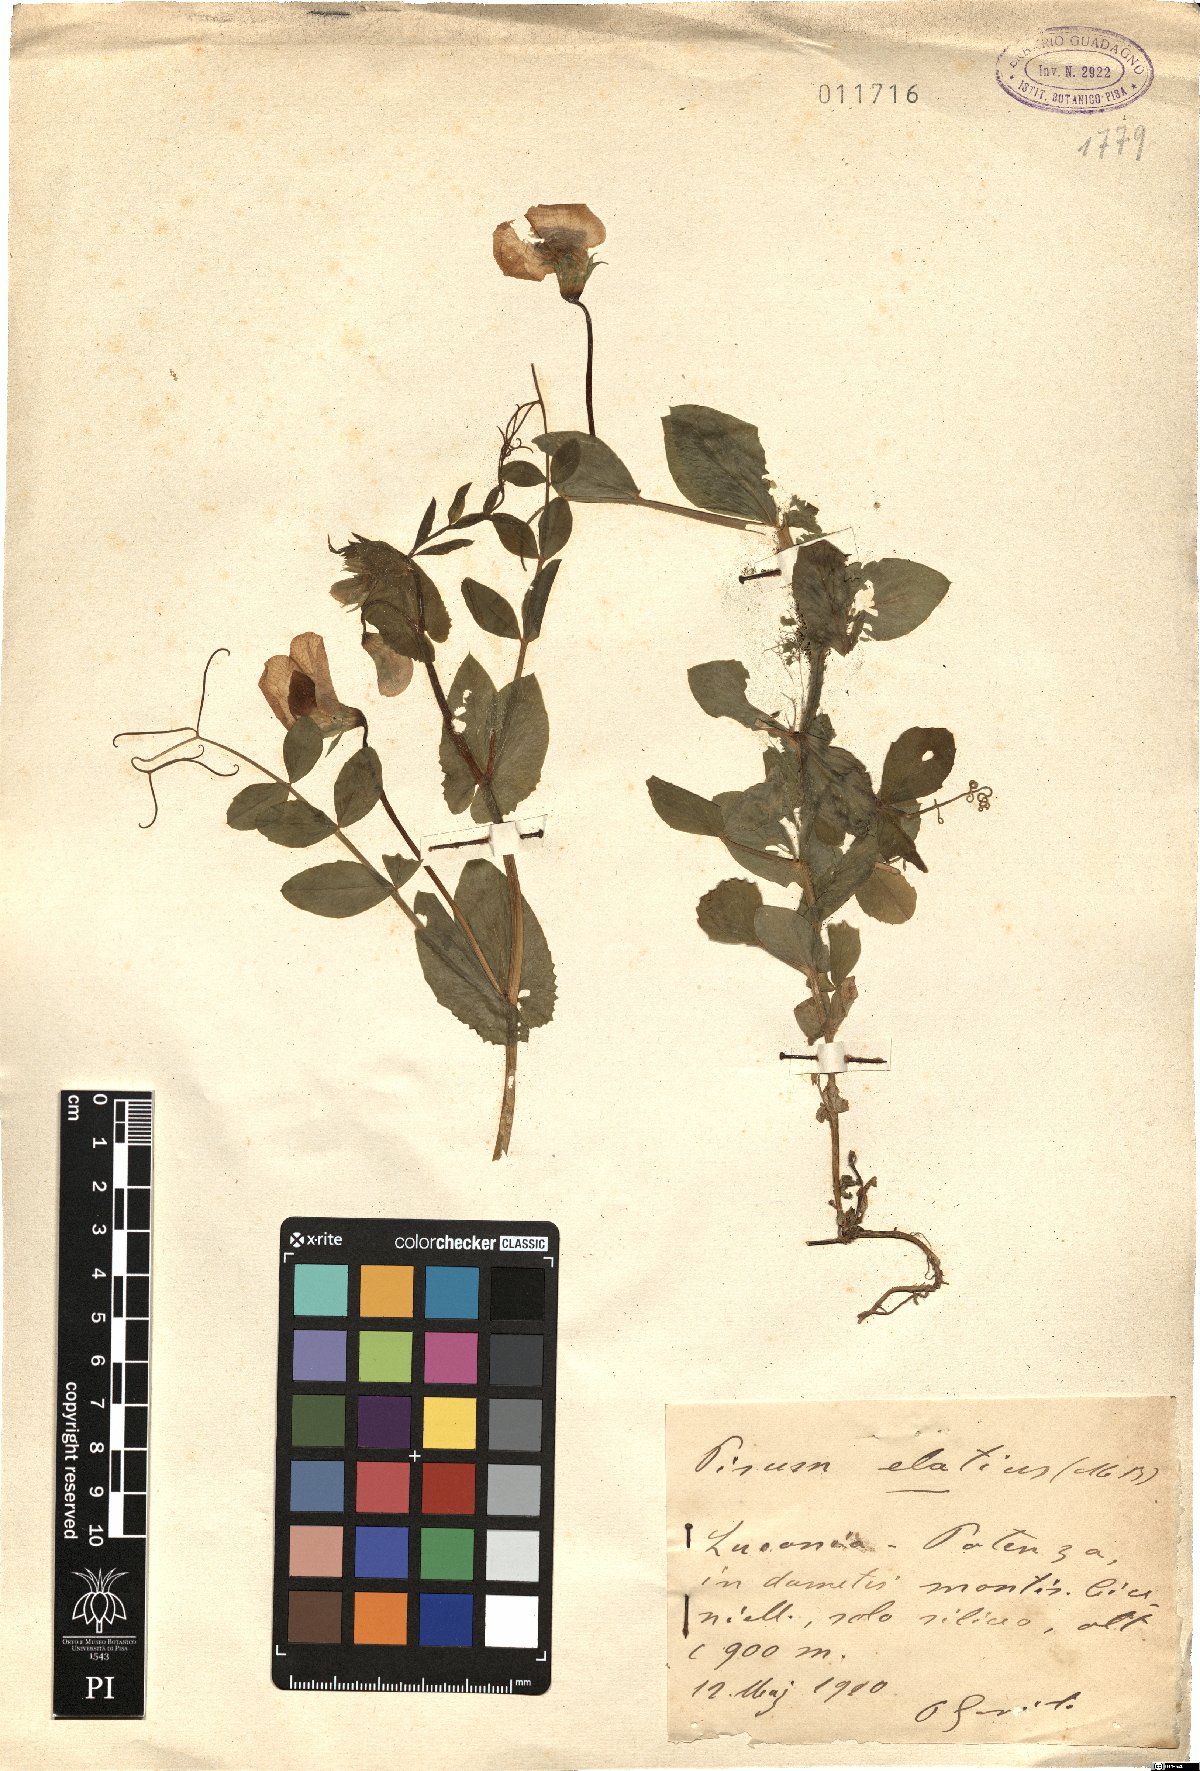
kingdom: Plantae
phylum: Tracheophyta
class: Magnoliopsida
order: Fabales
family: Fabaceae
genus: Lathyrus
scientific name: Lathyrus oleraceus
